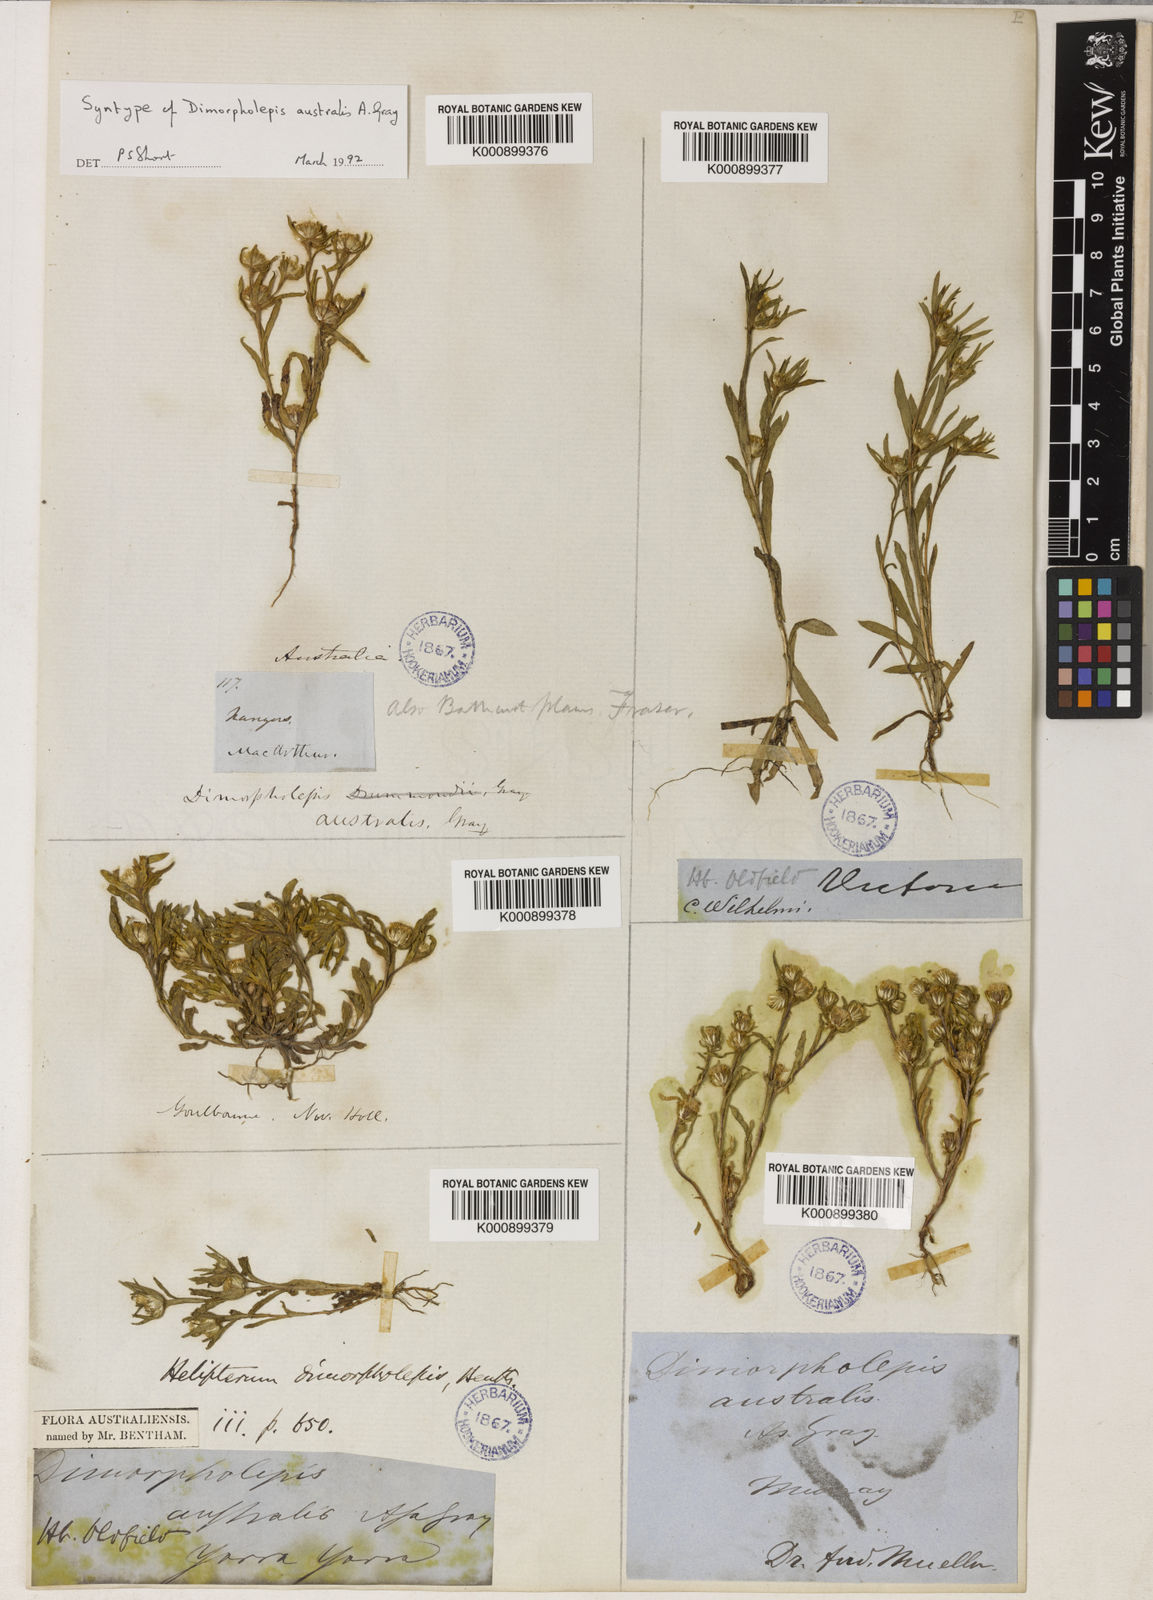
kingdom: Plantae
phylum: Tracheophyta
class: Magnoliopsida
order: Asterales
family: Asteraceae
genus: Triptilodiscus
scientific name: Triptilodiscus pygmaeus
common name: Common sunray
